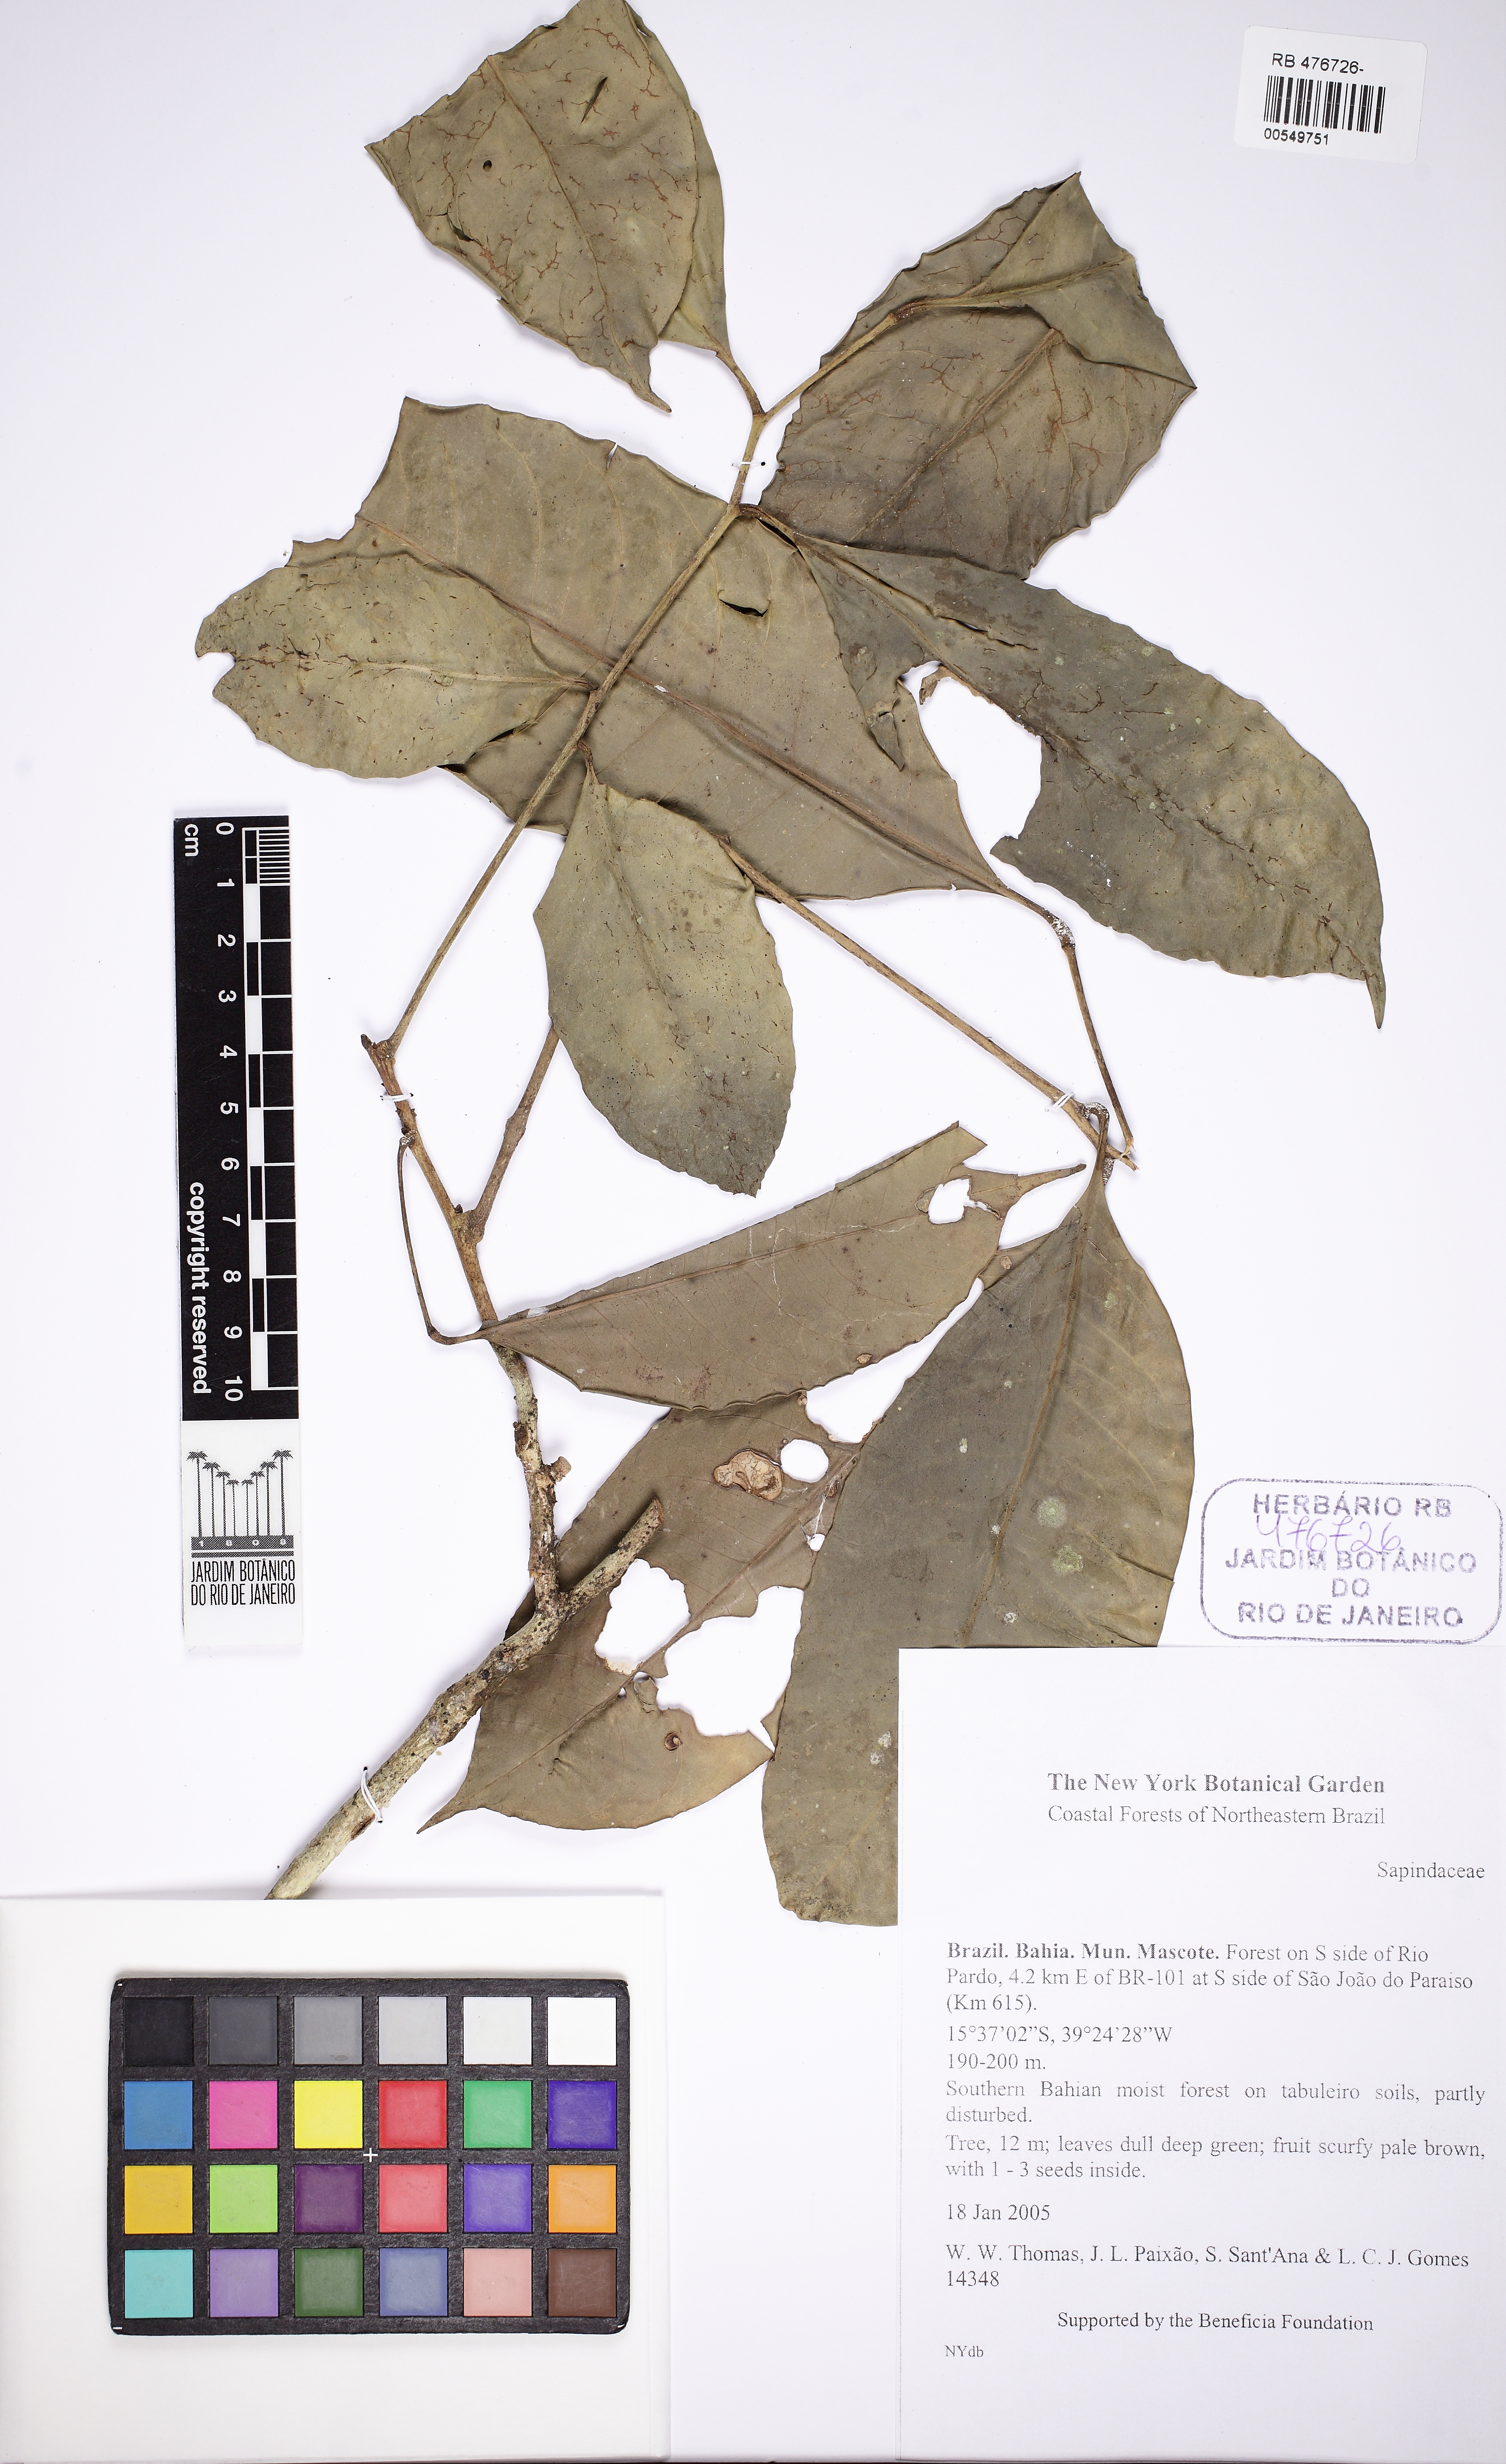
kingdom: Plantae
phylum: Tracheophyta
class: Magnoliopsida
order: Sapindales
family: Sapindaceae
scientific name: Sapindaceae
